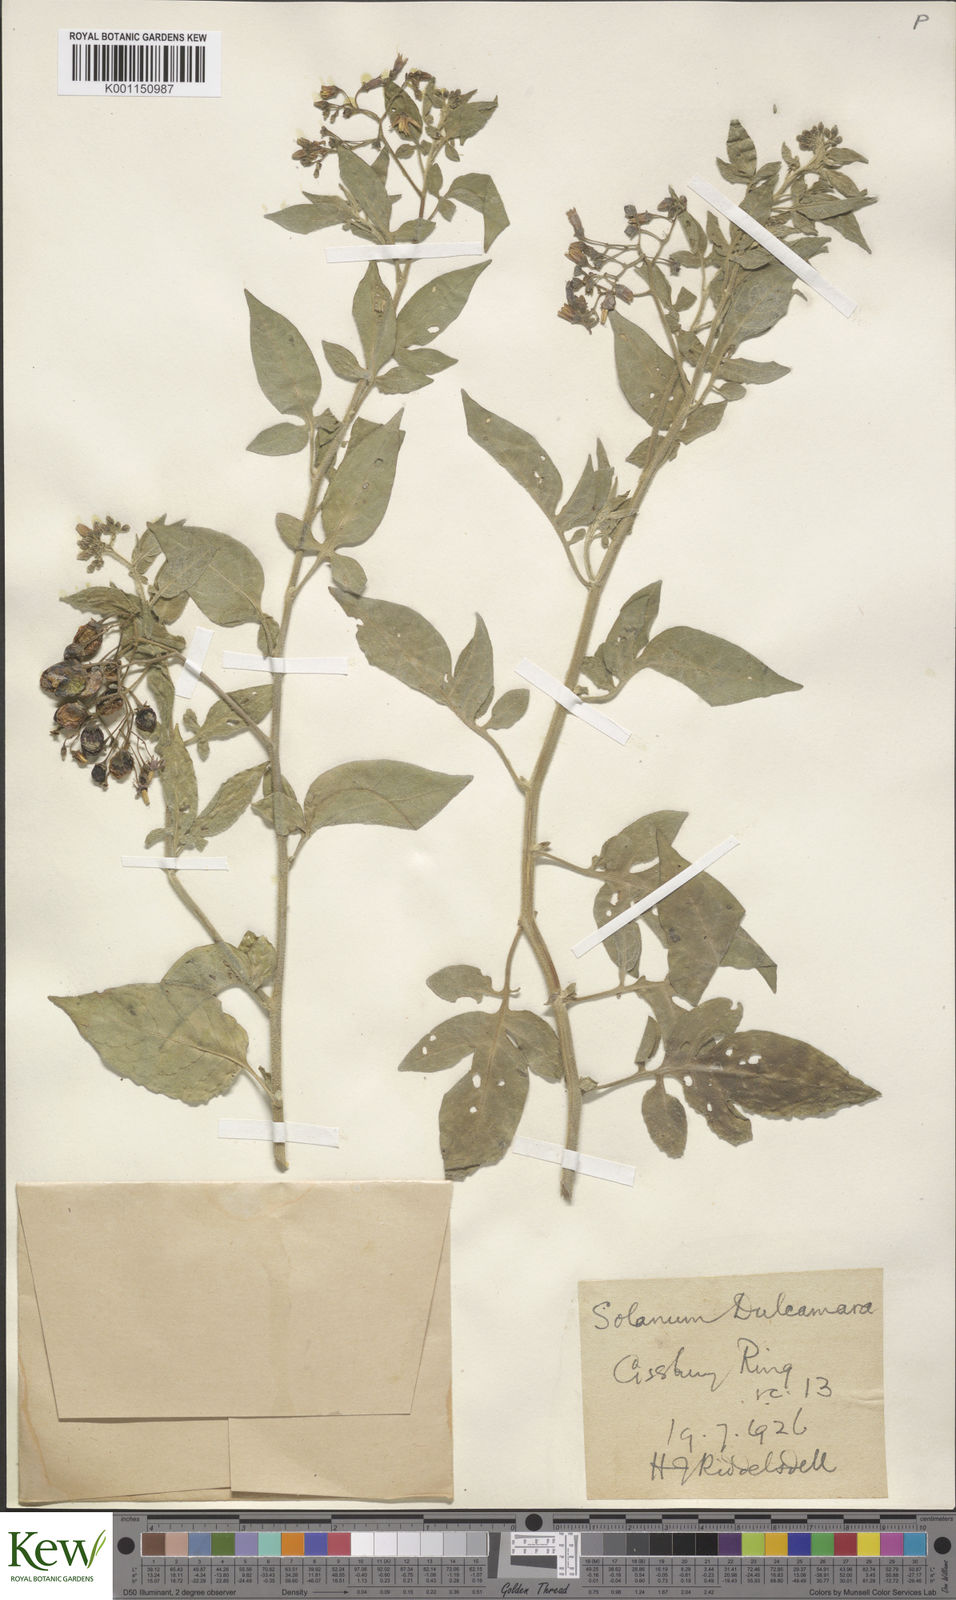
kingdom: Plantae
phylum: Tracheophyta
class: Magnoliopsida
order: Solanales
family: Solanaceae
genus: Solanum
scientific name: Solanum dulcamara
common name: Climbing nightshade
